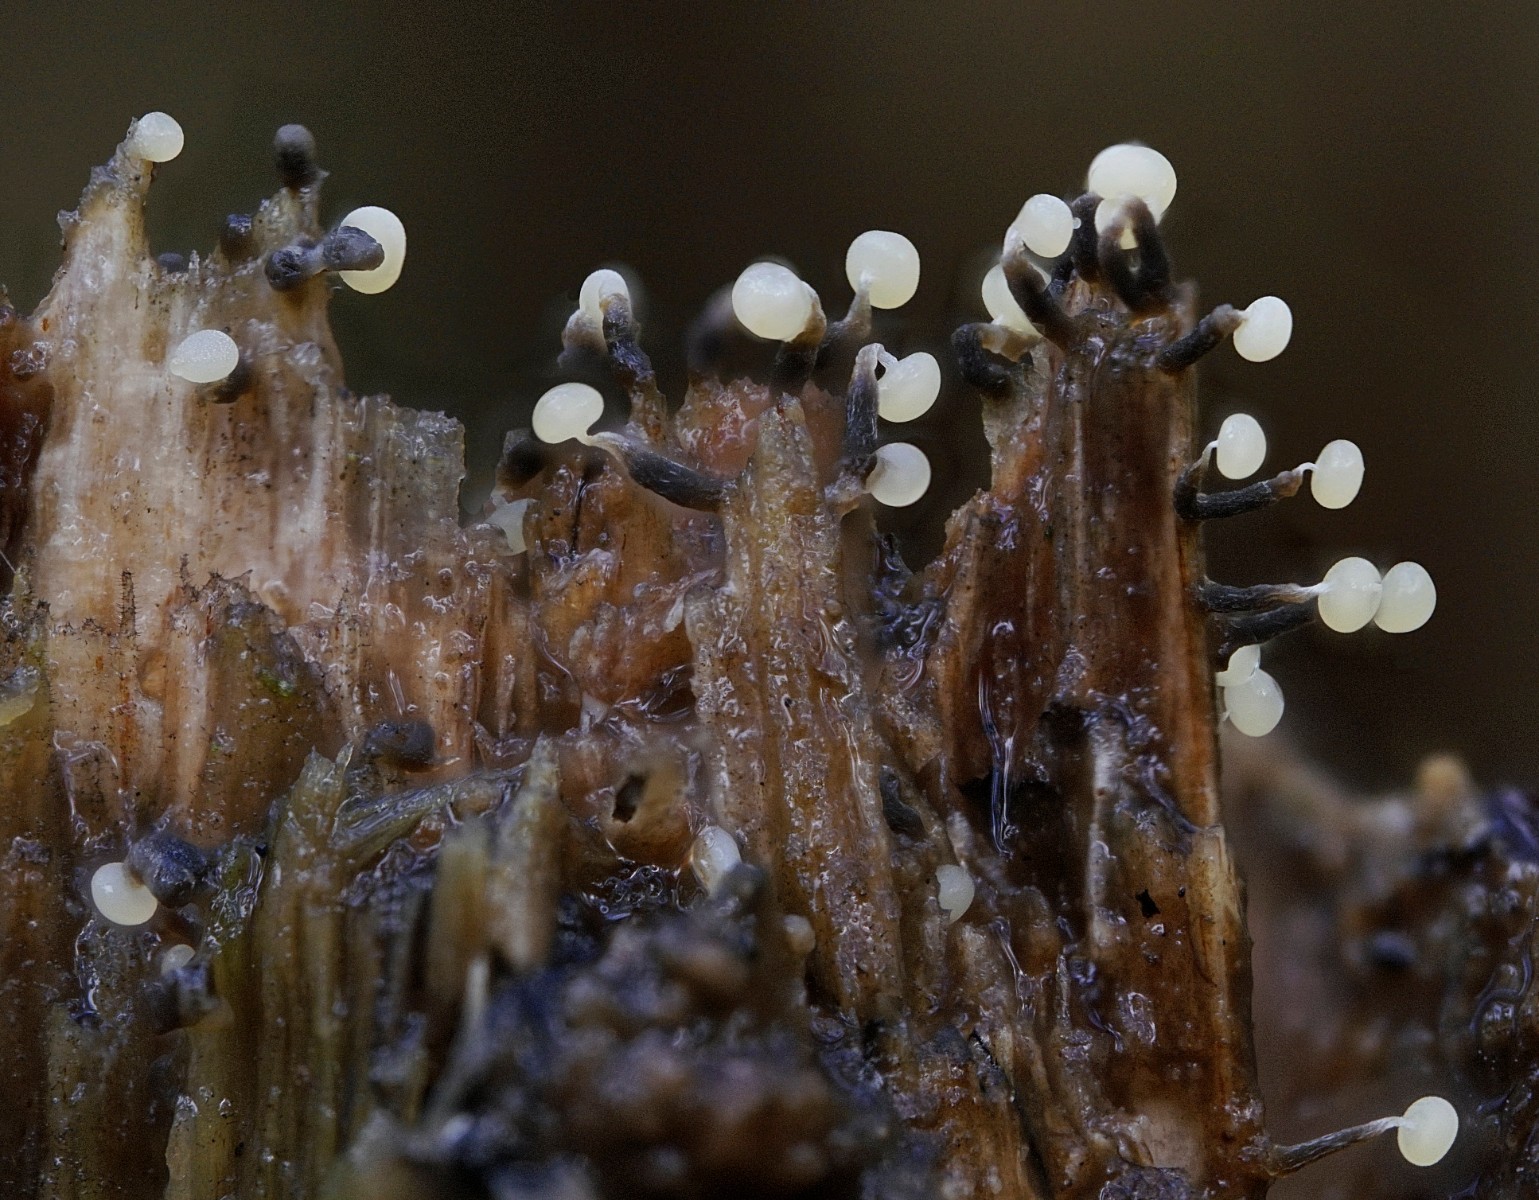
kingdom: Protozoa
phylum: Mycetozoa
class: Myxomycetes
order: Physarales
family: Physaraceae
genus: Physarum
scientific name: Physarum
